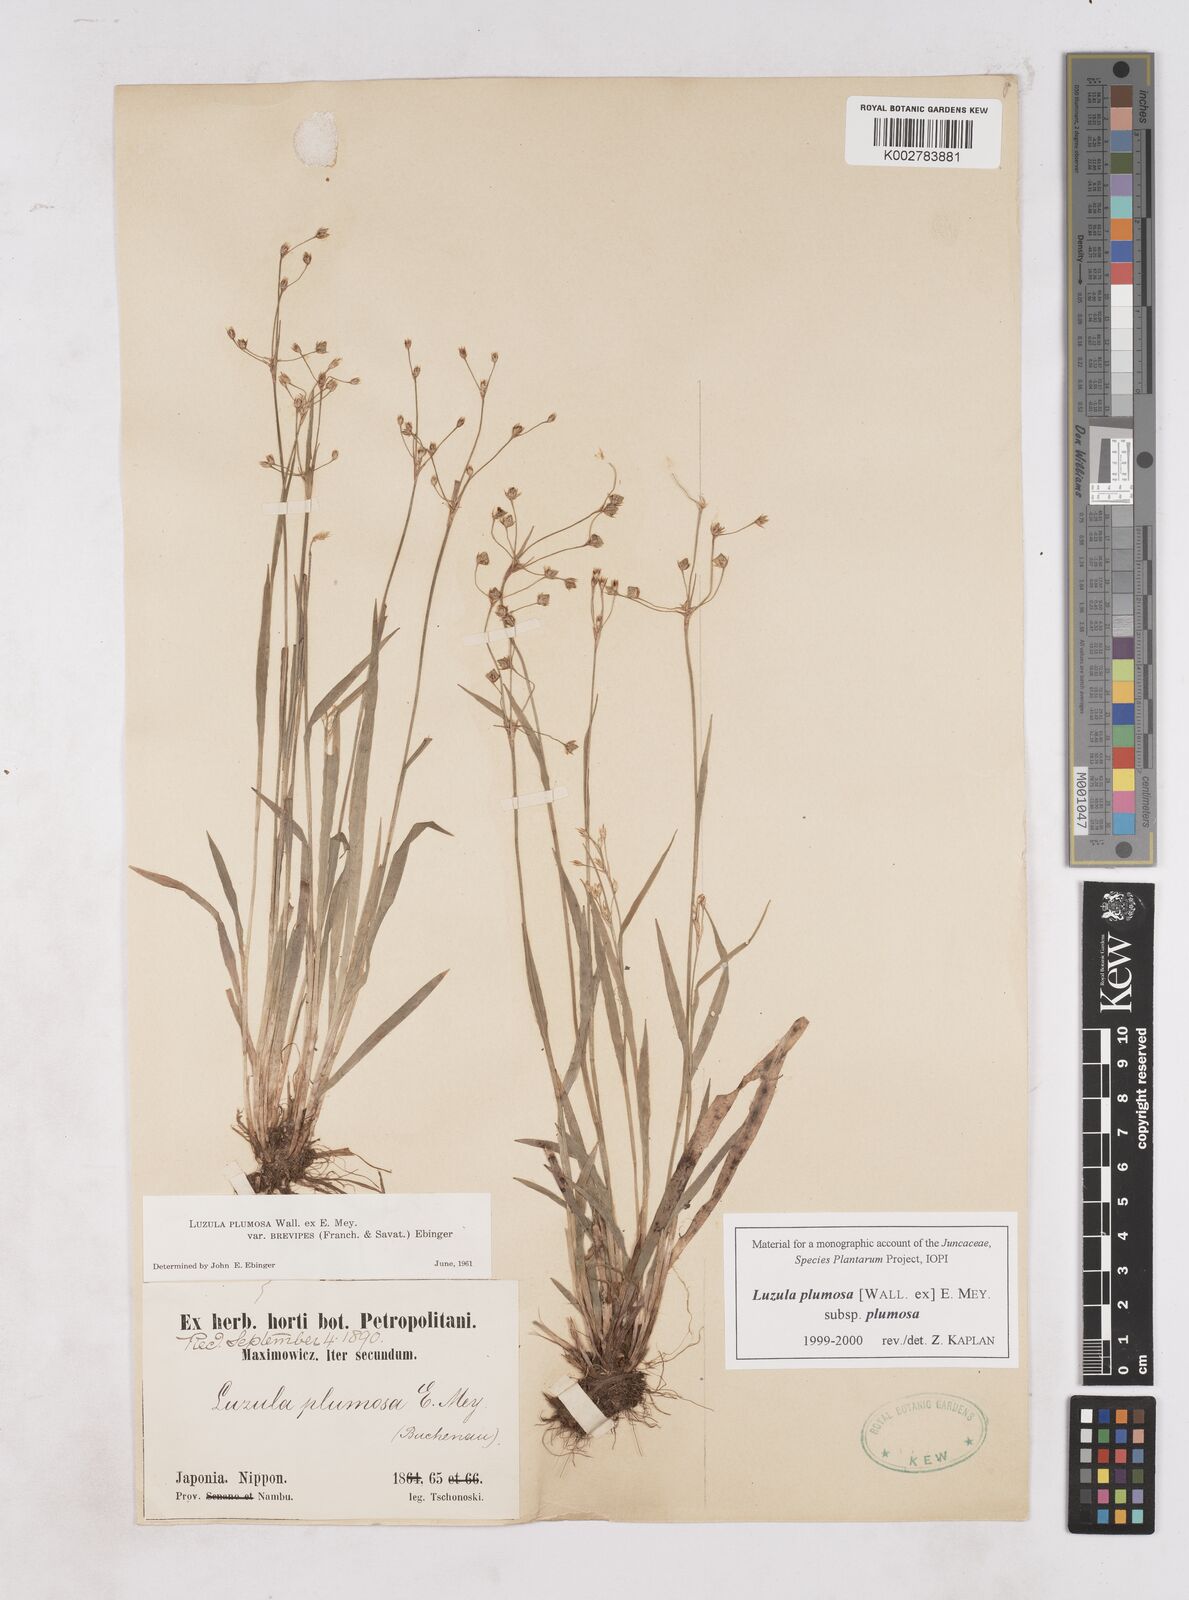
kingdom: Plantae
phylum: Tracheophyta
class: Liliopsida
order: Poales
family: Juncaceae
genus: Luzula
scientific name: Luzula plumosa
